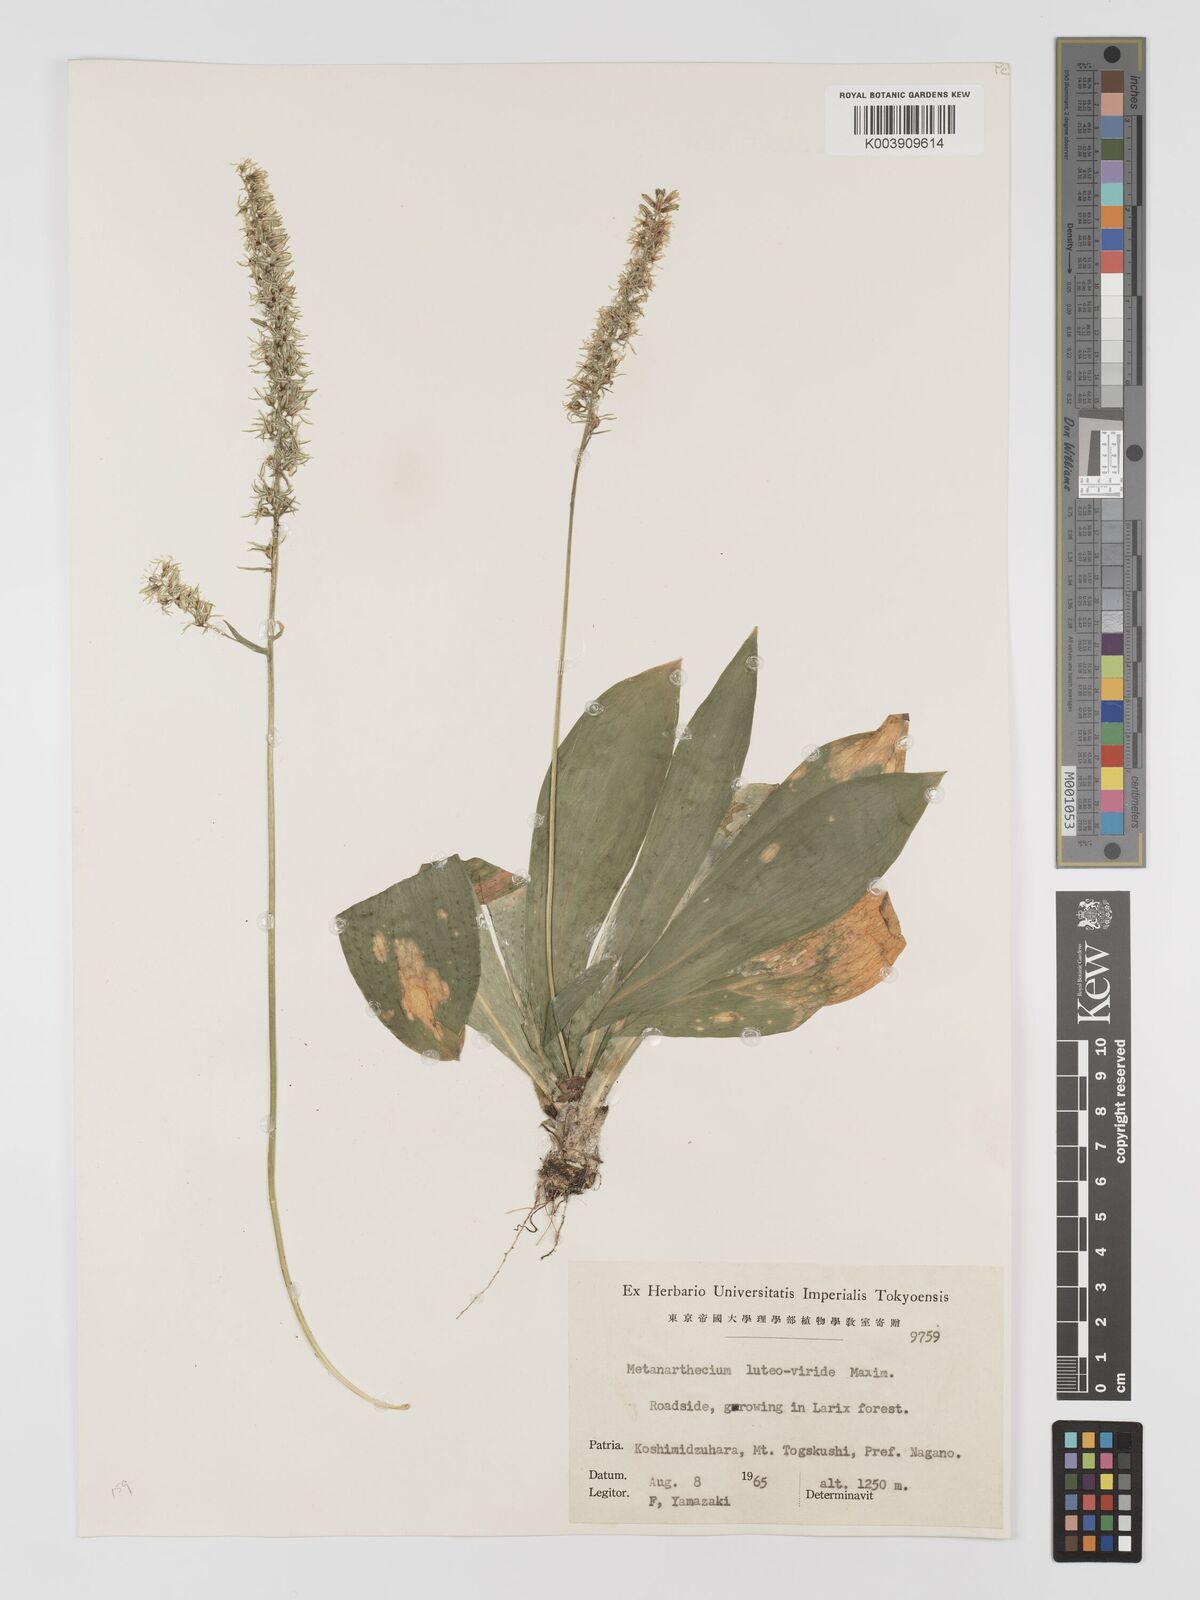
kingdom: Plantae
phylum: Tracheophyta
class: Liliopsida
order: Dioscoreales
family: Nartheciaceae
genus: Metanarthecium
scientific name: Metanarthecium luteoviride
